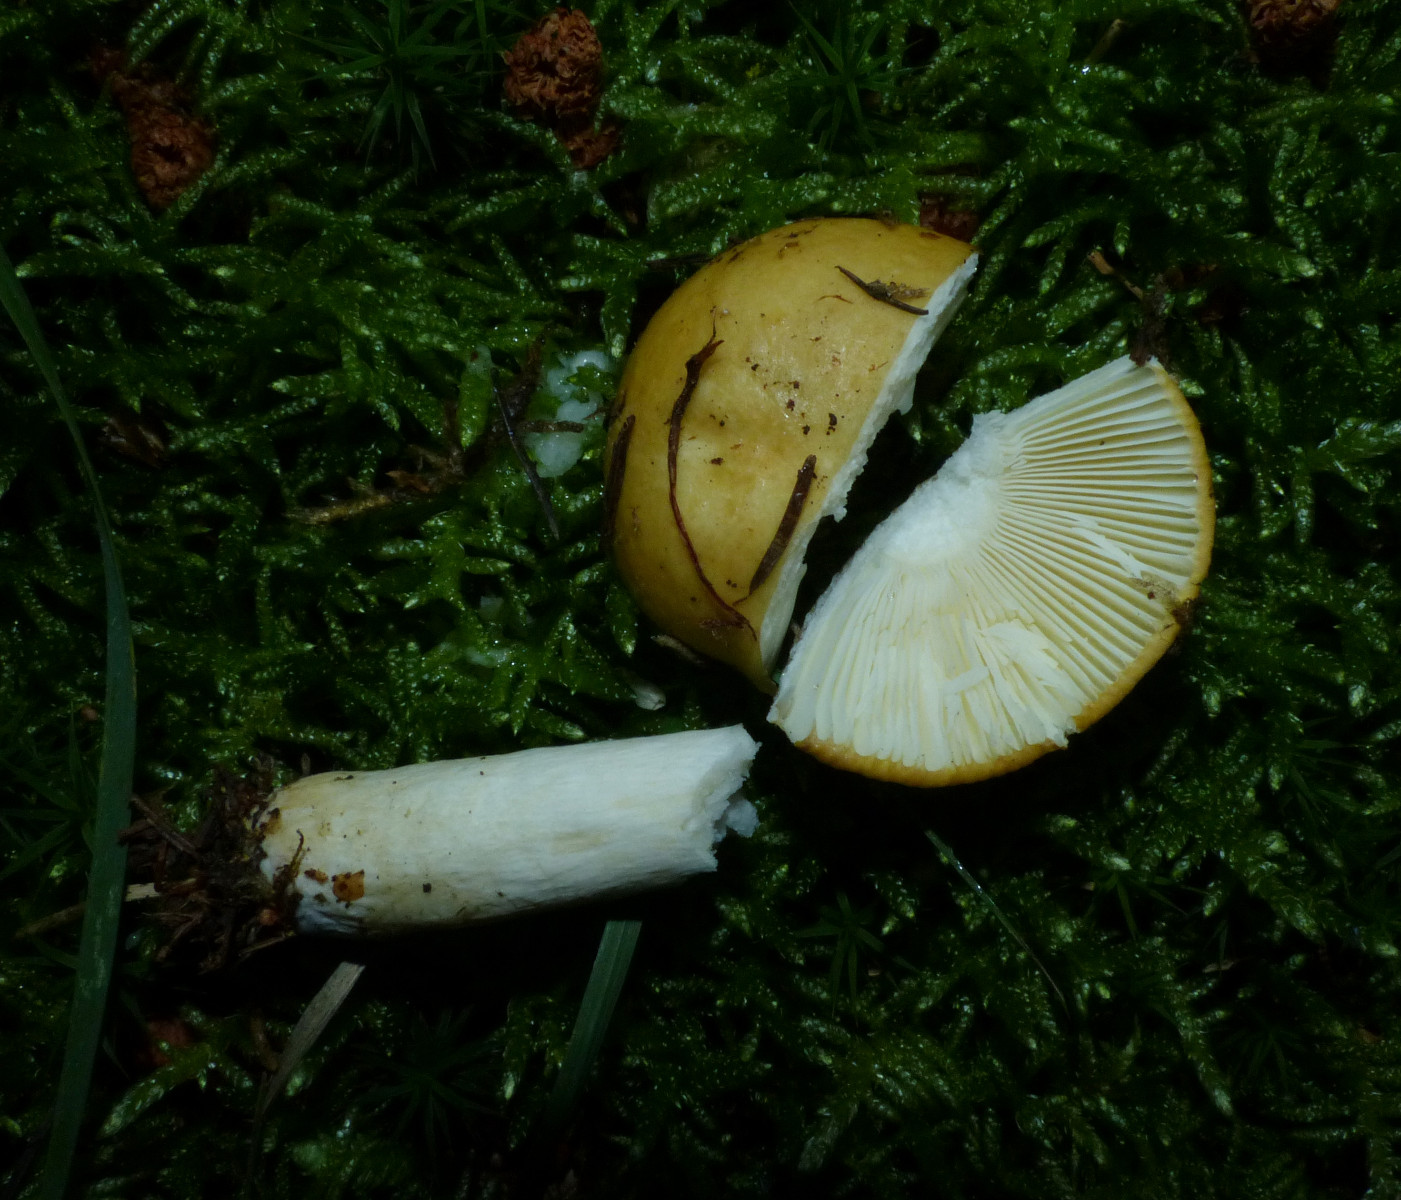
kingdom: Fungi
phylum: Basidiomycota
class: Agaricomycetes
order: Russulales
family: Russulaceae
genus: Russula
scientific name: Russula ochroleuca
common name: okkergul skørhat
